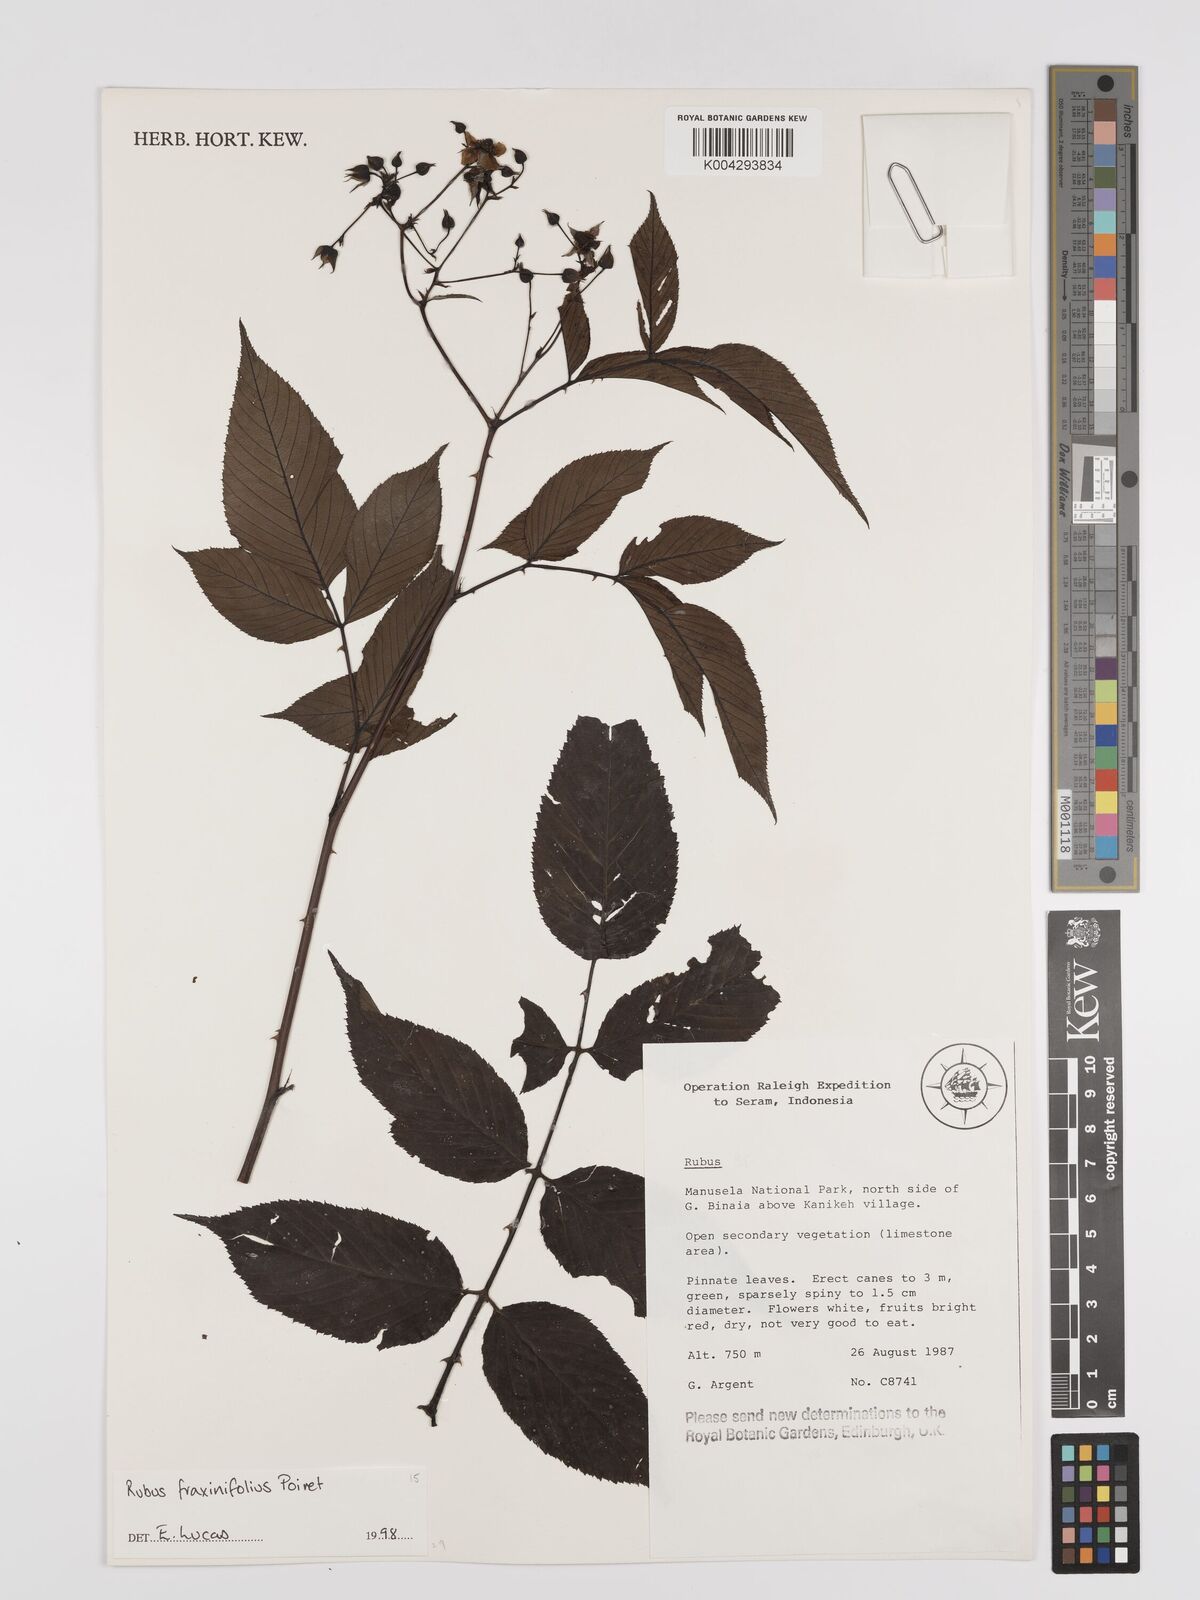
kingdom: Plantae
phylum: Tracheophyta
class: Magnoliopsida
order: Rosales
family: Rosaceae
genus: Rubus
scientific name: Rubus fraxinifolius
